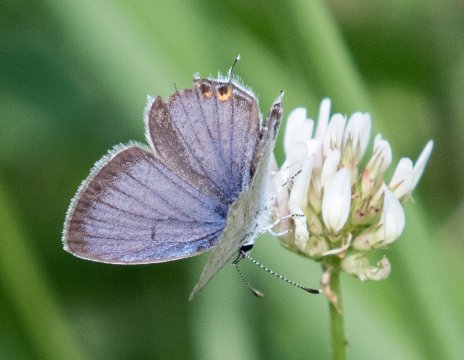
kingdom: Animalia
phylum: Arthropoda
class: Insecta
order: Lepidoptera
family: Lycaenidae
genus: Elkalyce
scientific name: Elkalyce comyntas
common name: Eastern Tailed-Blue
